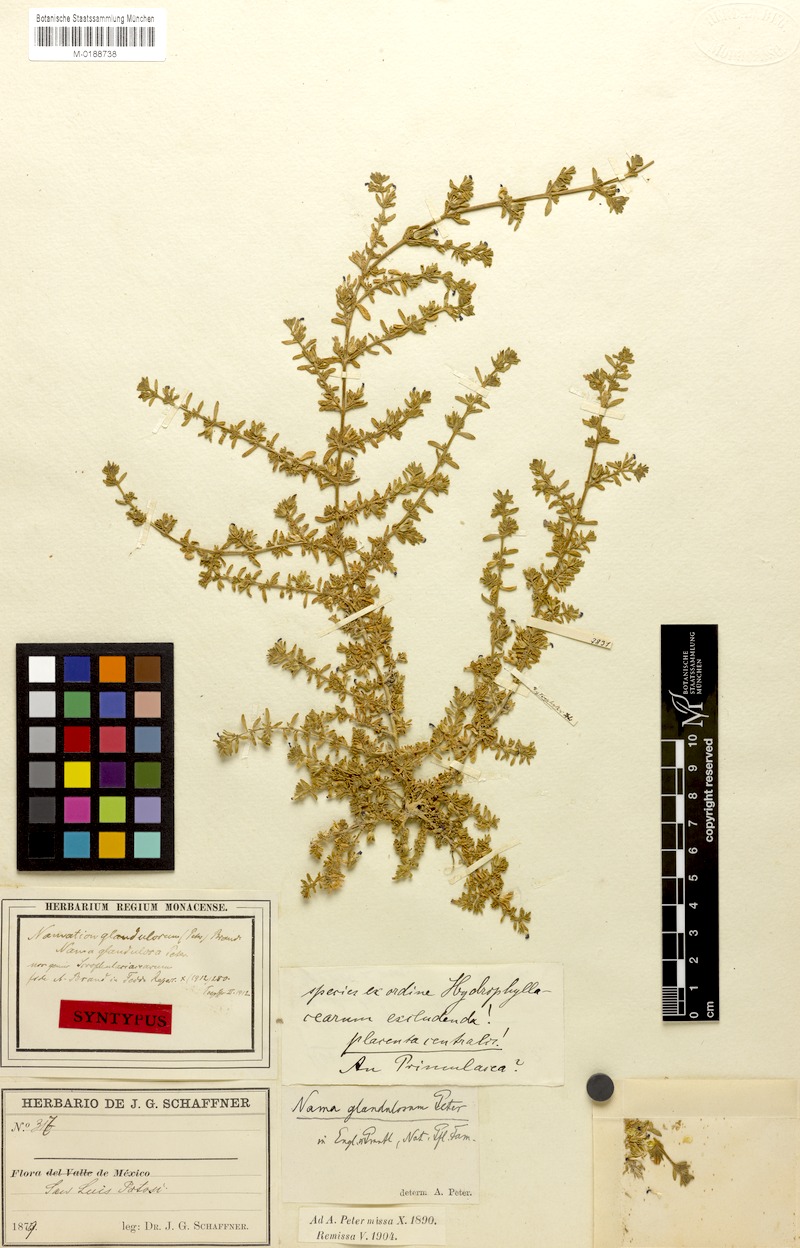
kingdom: Plantae
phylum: Tracheophyta
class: Magnoliopsida
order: Solanales
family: Solanaceae
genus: Calibrachoa
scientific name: Calibrachoa parviflora
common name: Seaside petunia
